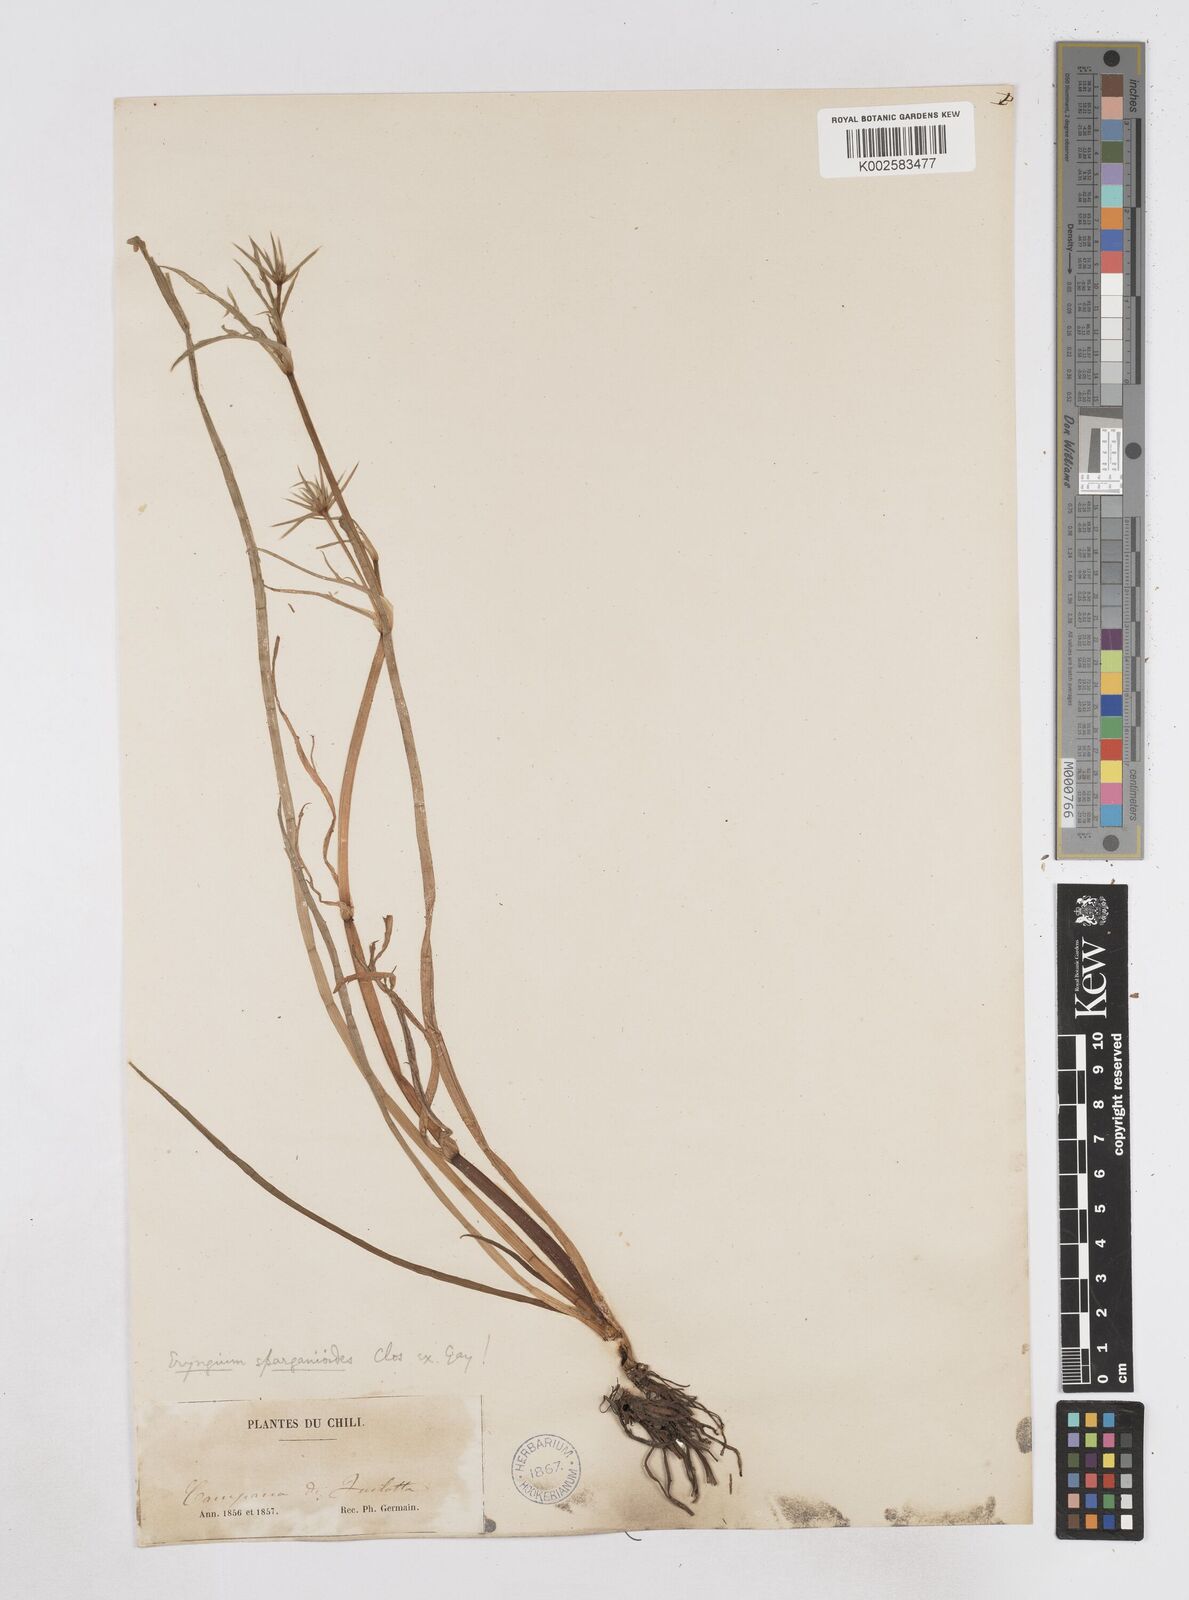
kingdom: Plantae
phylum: Tracheophyta
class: Magnoliopsida
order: Apiales
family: Apiaceae
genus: Eryngium
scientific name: Eryngium sparganioides
